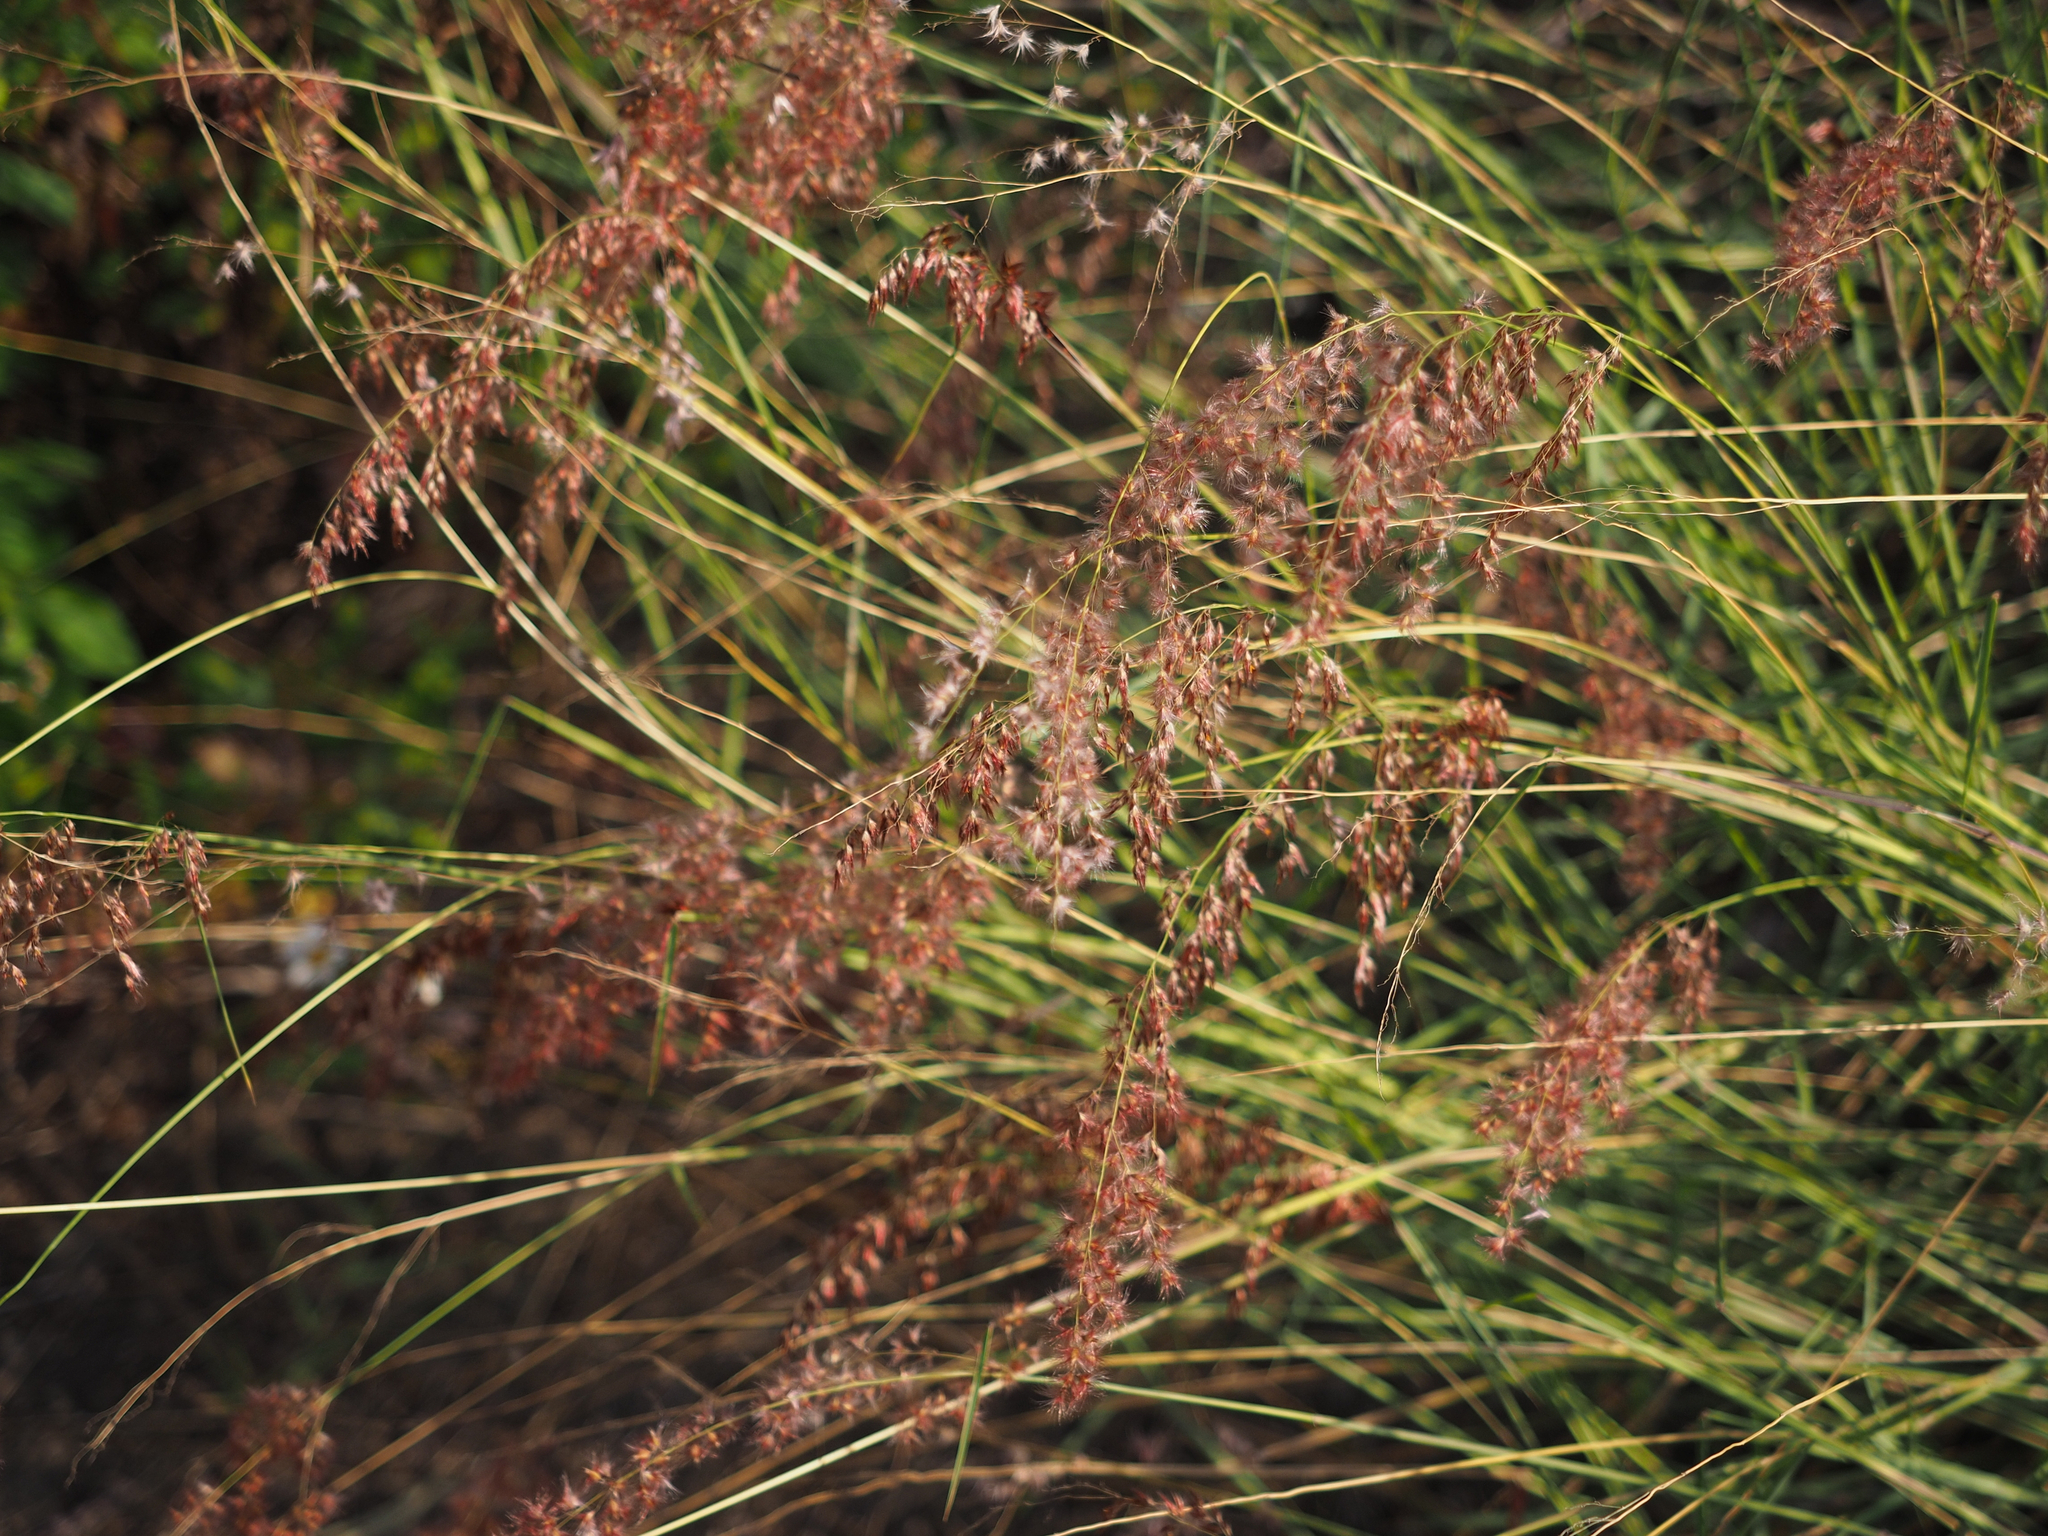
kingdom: Plantae
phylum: Tracheophyta
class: Liliopsida
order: Poales
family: Poaceae
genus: Melinis
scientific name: Melinis repens
